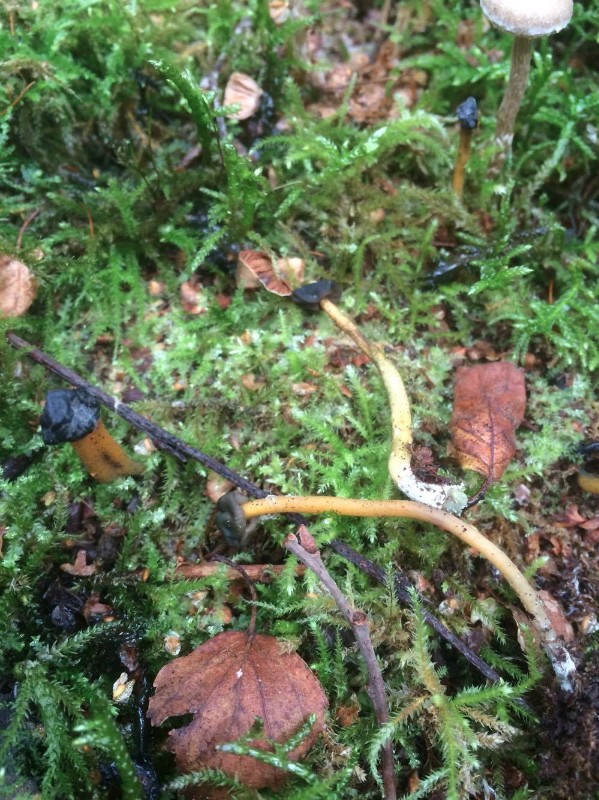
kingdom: Fungi
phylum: Ascomycota
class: Leotiomycetes
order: Leotiales
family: Leotiaceae
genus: Leotia
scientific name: Leotia lubrica
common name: ravsvamp
